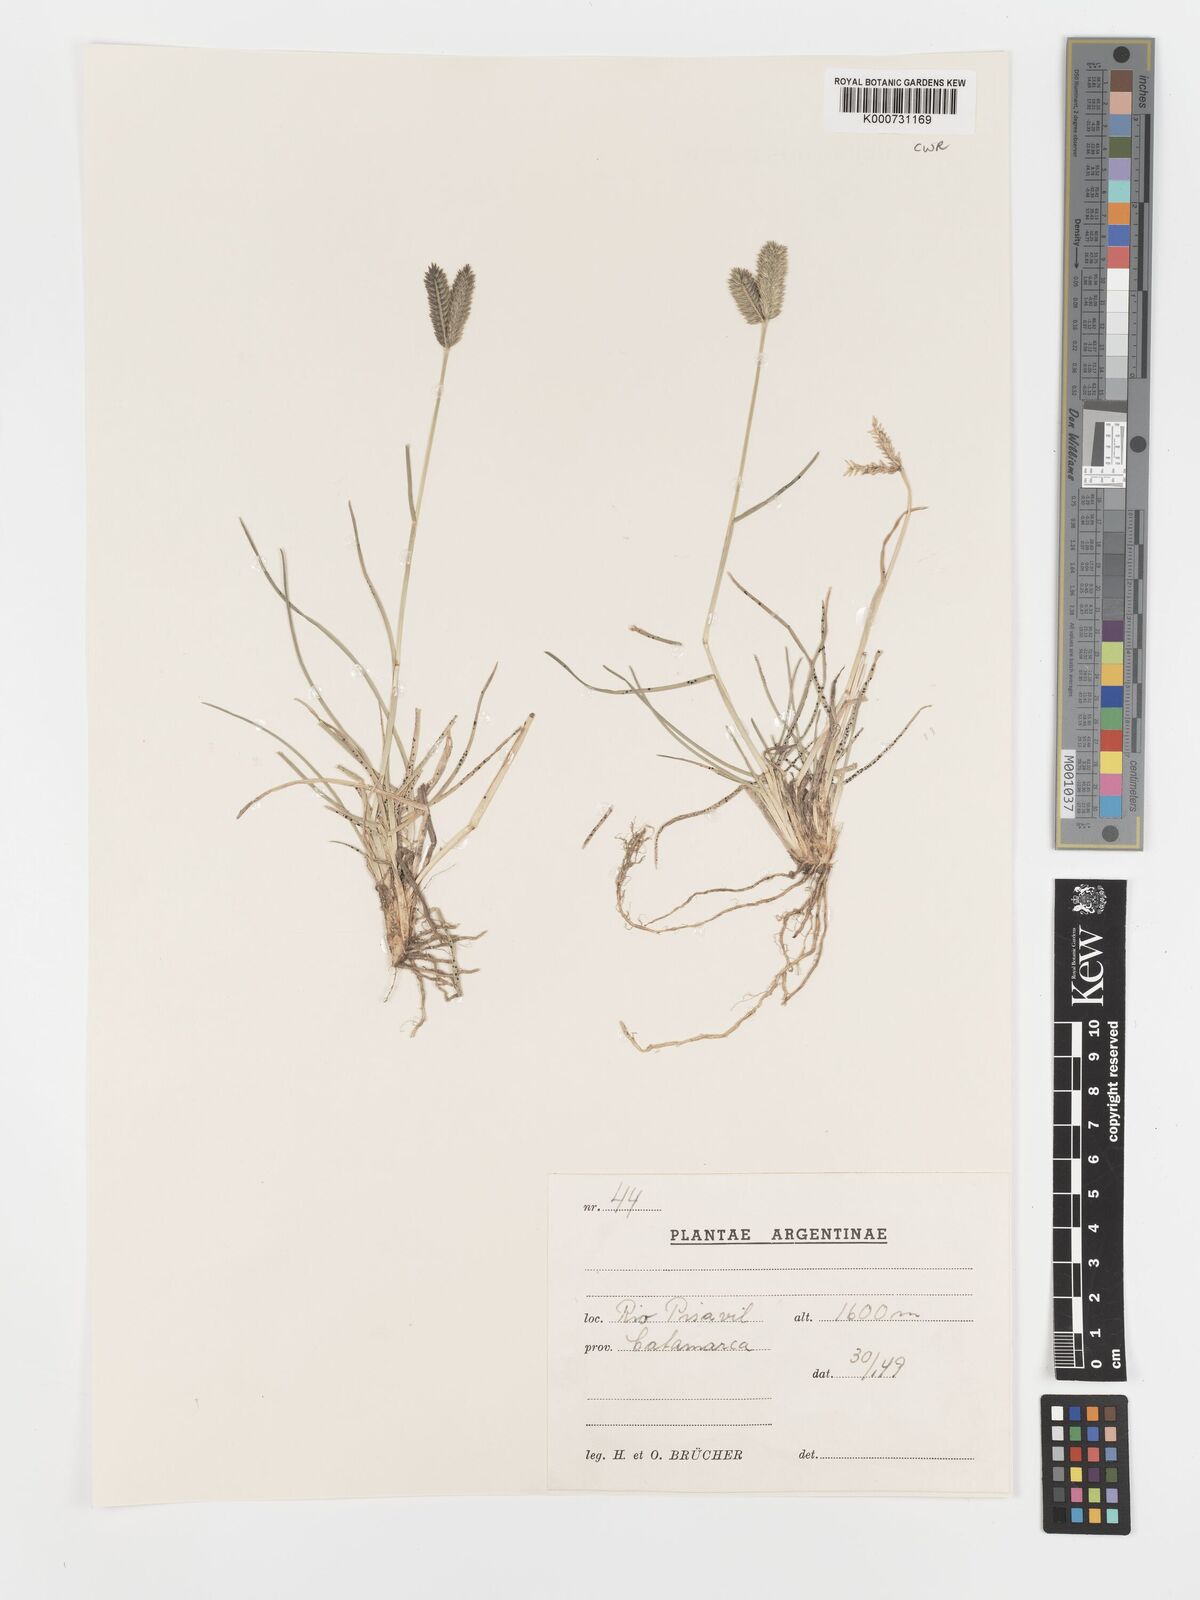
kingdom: Plantae
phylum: Tracheophyta
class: Liliopsida
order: Poales
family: Poaceae
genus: Eleusine
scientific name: Eleusine tristachya
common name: American yard-grass
